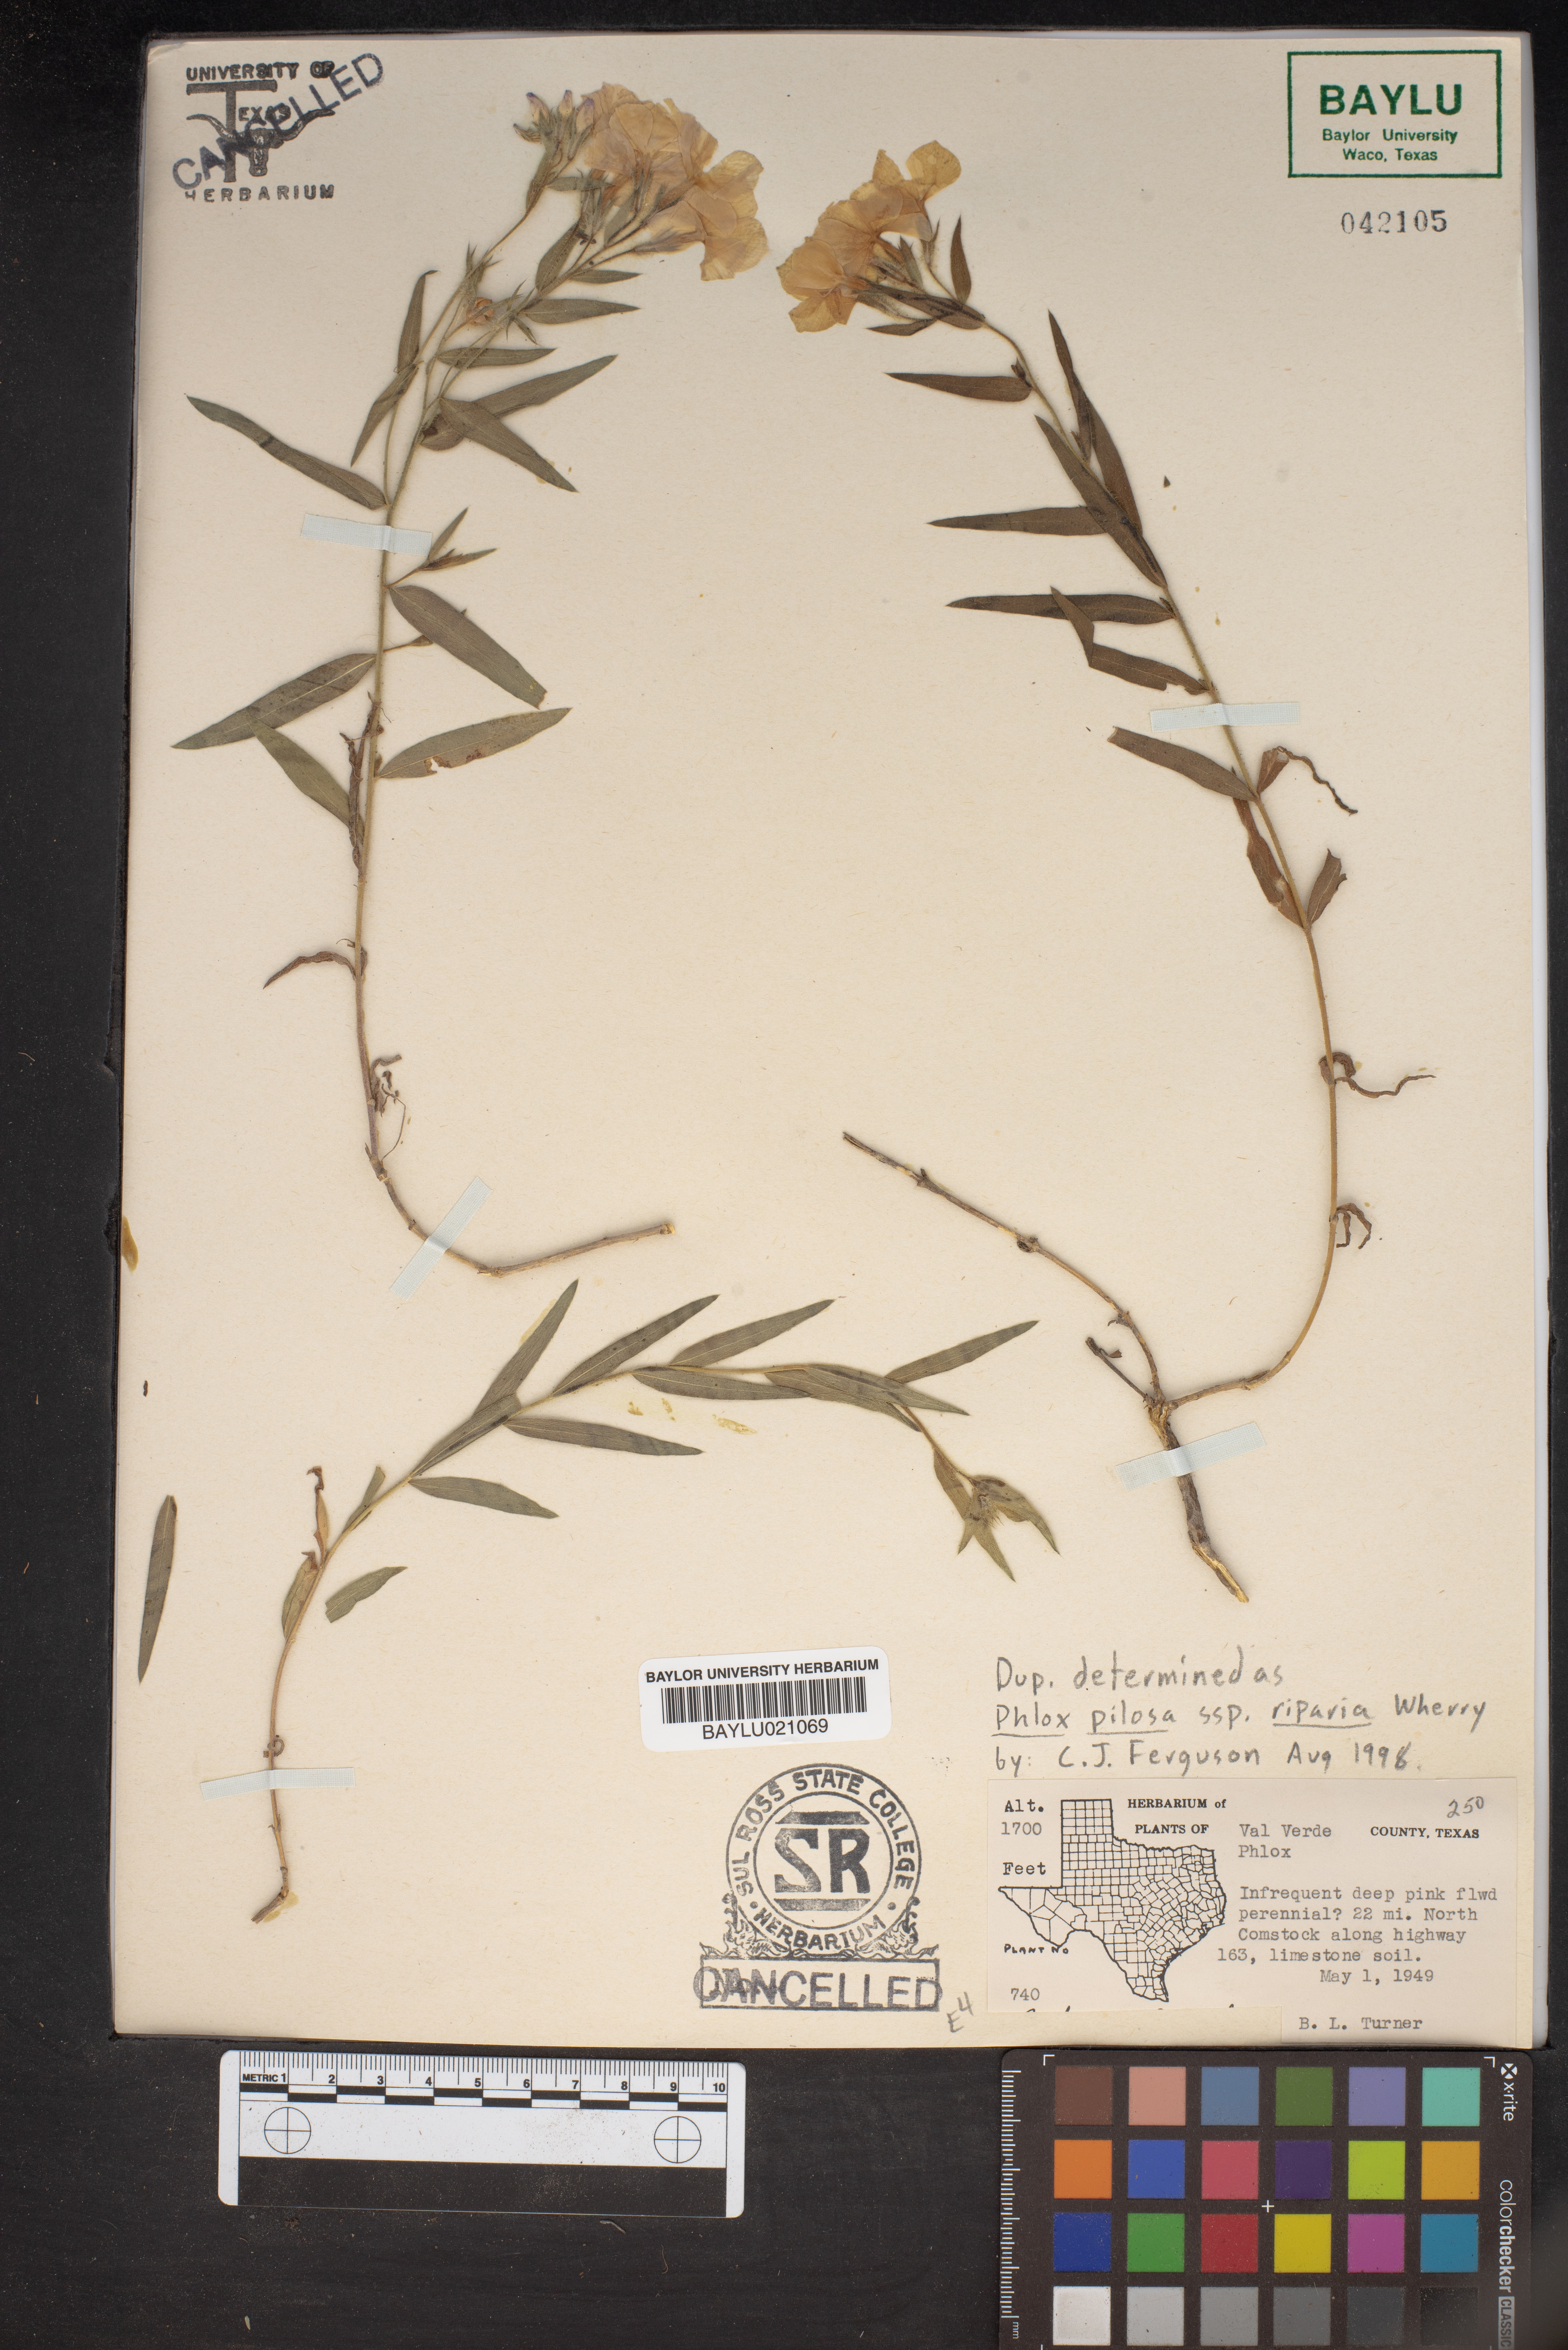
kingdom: Plantae
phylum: Tracheophyta
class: Magnoliopsida
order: Ericales
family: Polemoniaceae
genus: Phlox
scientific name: Phlox
